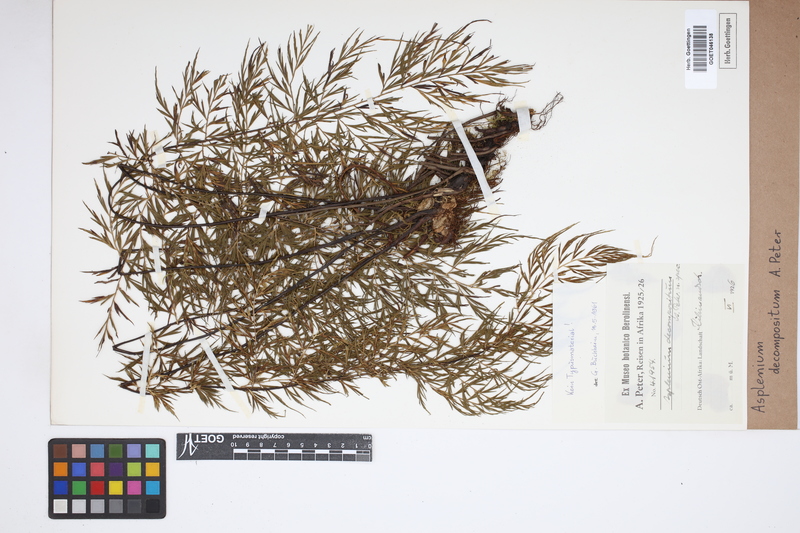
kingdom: Plantae
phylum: Tracheophyta
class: Polypodiopsida
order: Polypodiales
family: Aspleniaceae
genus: Asplenium
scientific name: Asplenium linckii
